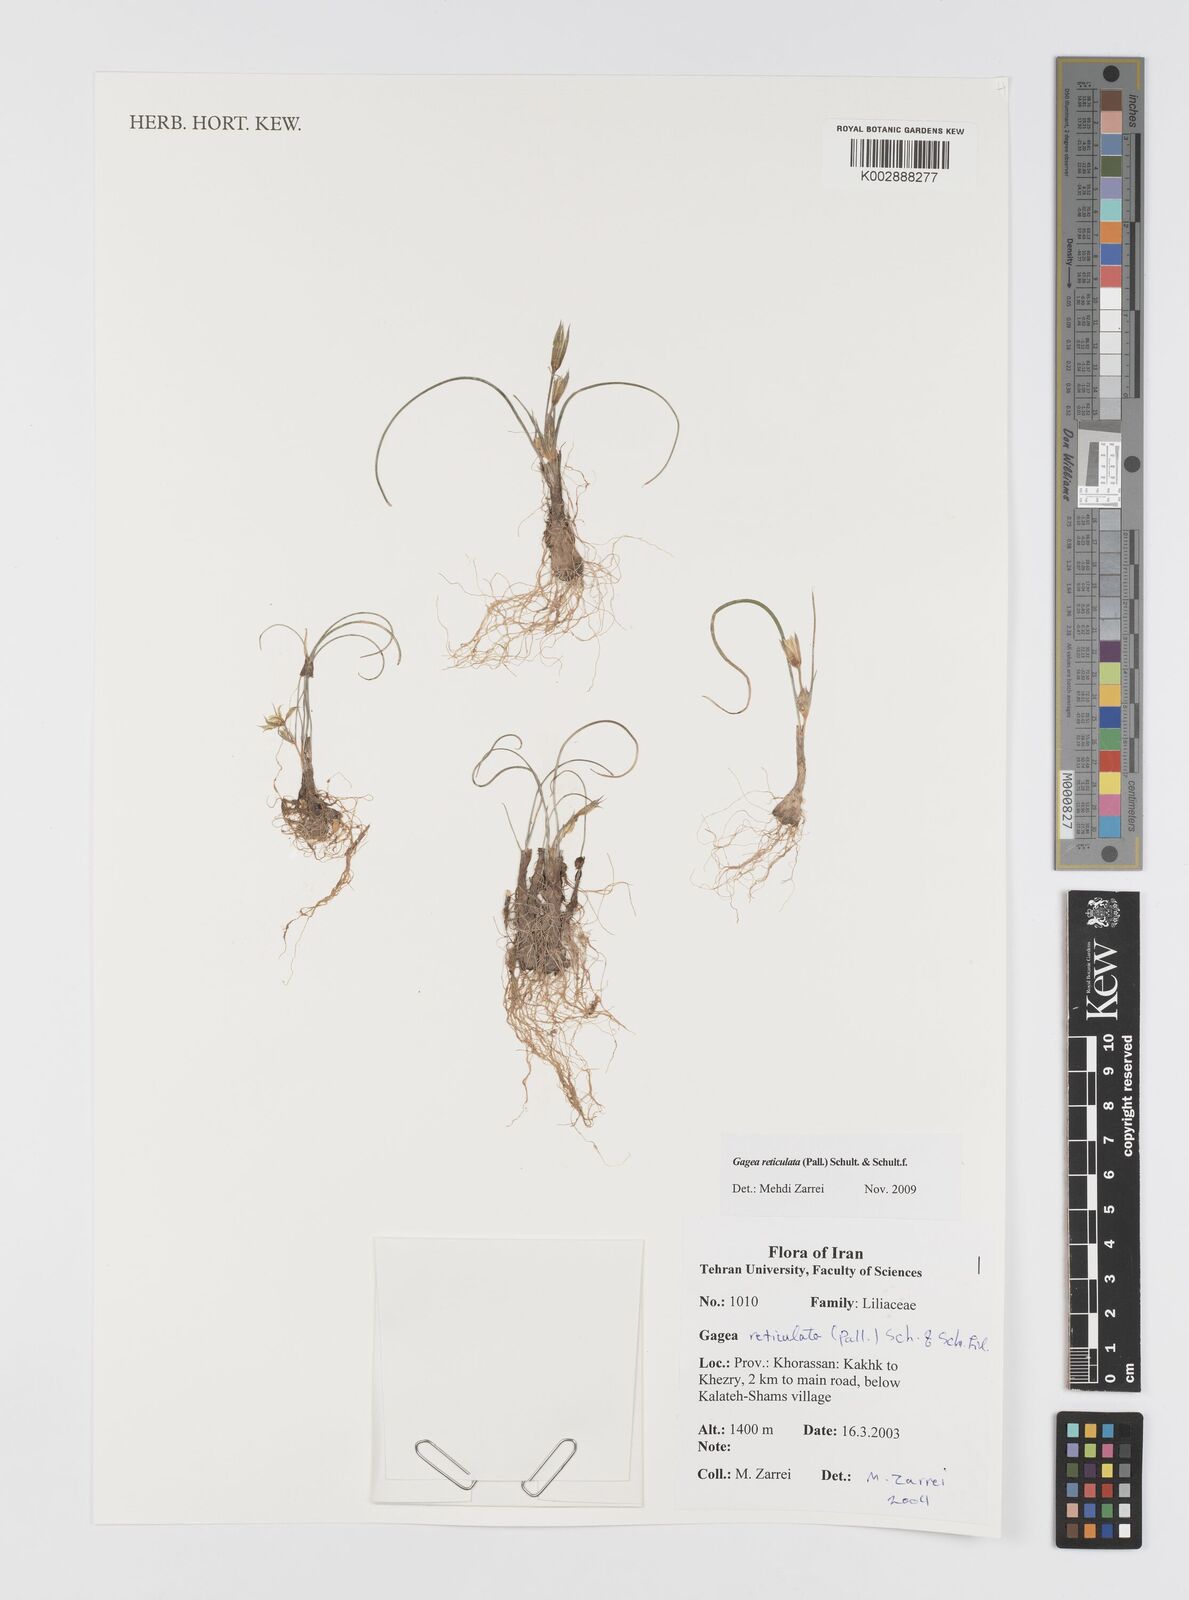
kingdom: Plantae
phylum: Tracheophyta
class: Liliopsida
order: Liliales
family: Liliaceae
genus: Gagea
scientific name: Gagea reticulata
